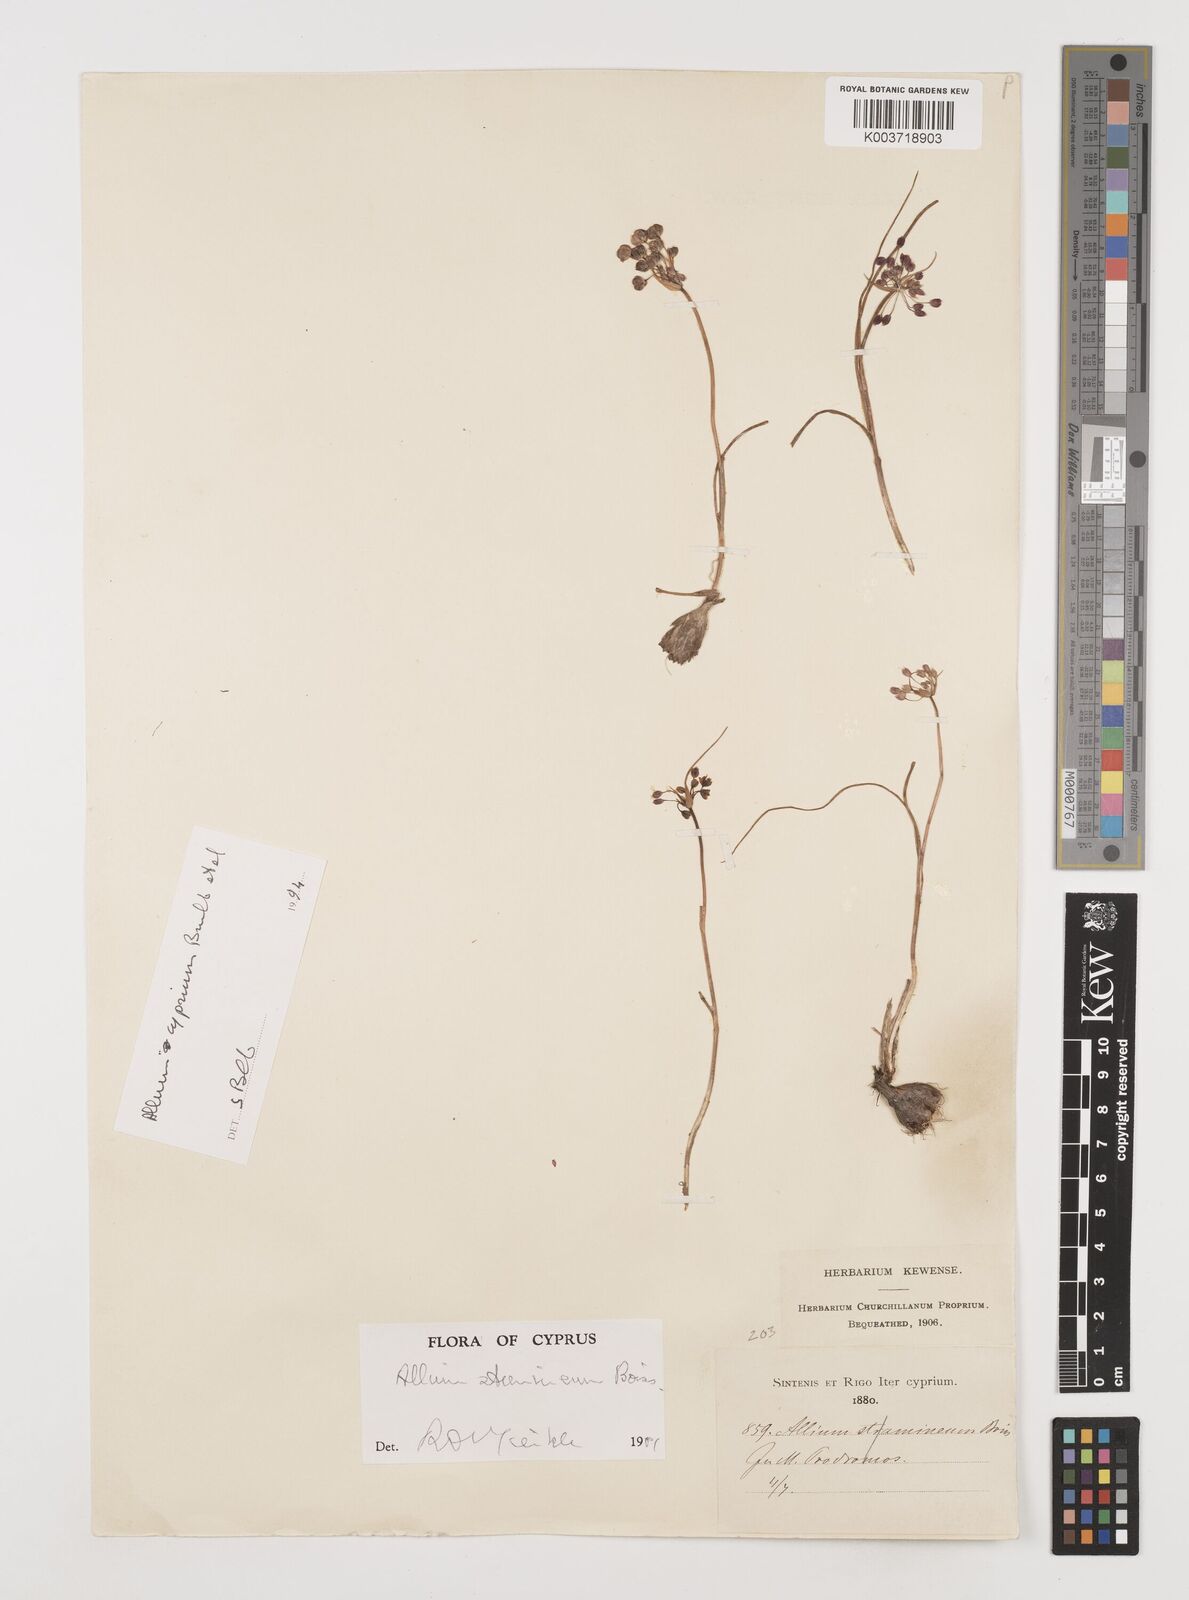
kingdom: Plantae
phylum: Tracheophyta
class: Liliopsida
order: Asparagales
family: Amaryllidaceae
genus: Allium
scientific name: Allium stamineum
